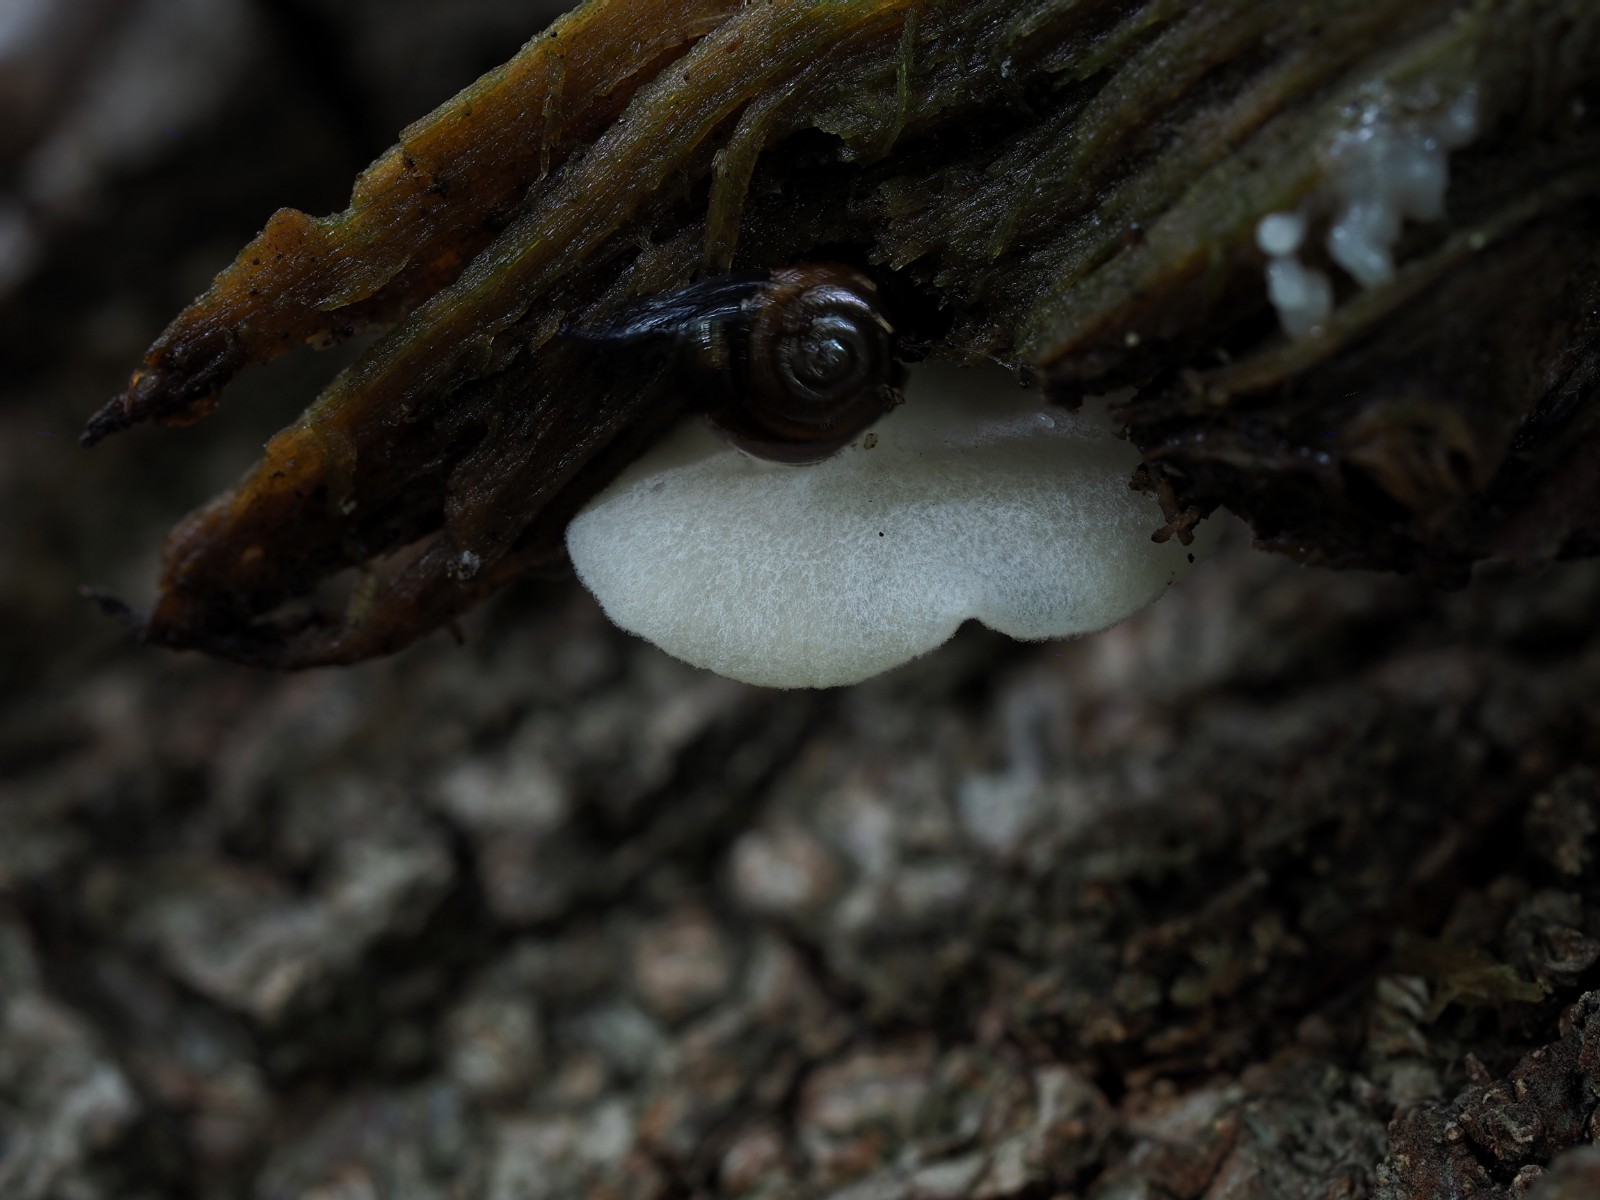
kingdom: Fungi
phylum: Basidiomycota
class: Agaricomycetes
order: Agaricales
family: Entolomataceae
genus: Clitopilus
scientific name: Clitopilus hobsonii
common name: Miller's oysterling
